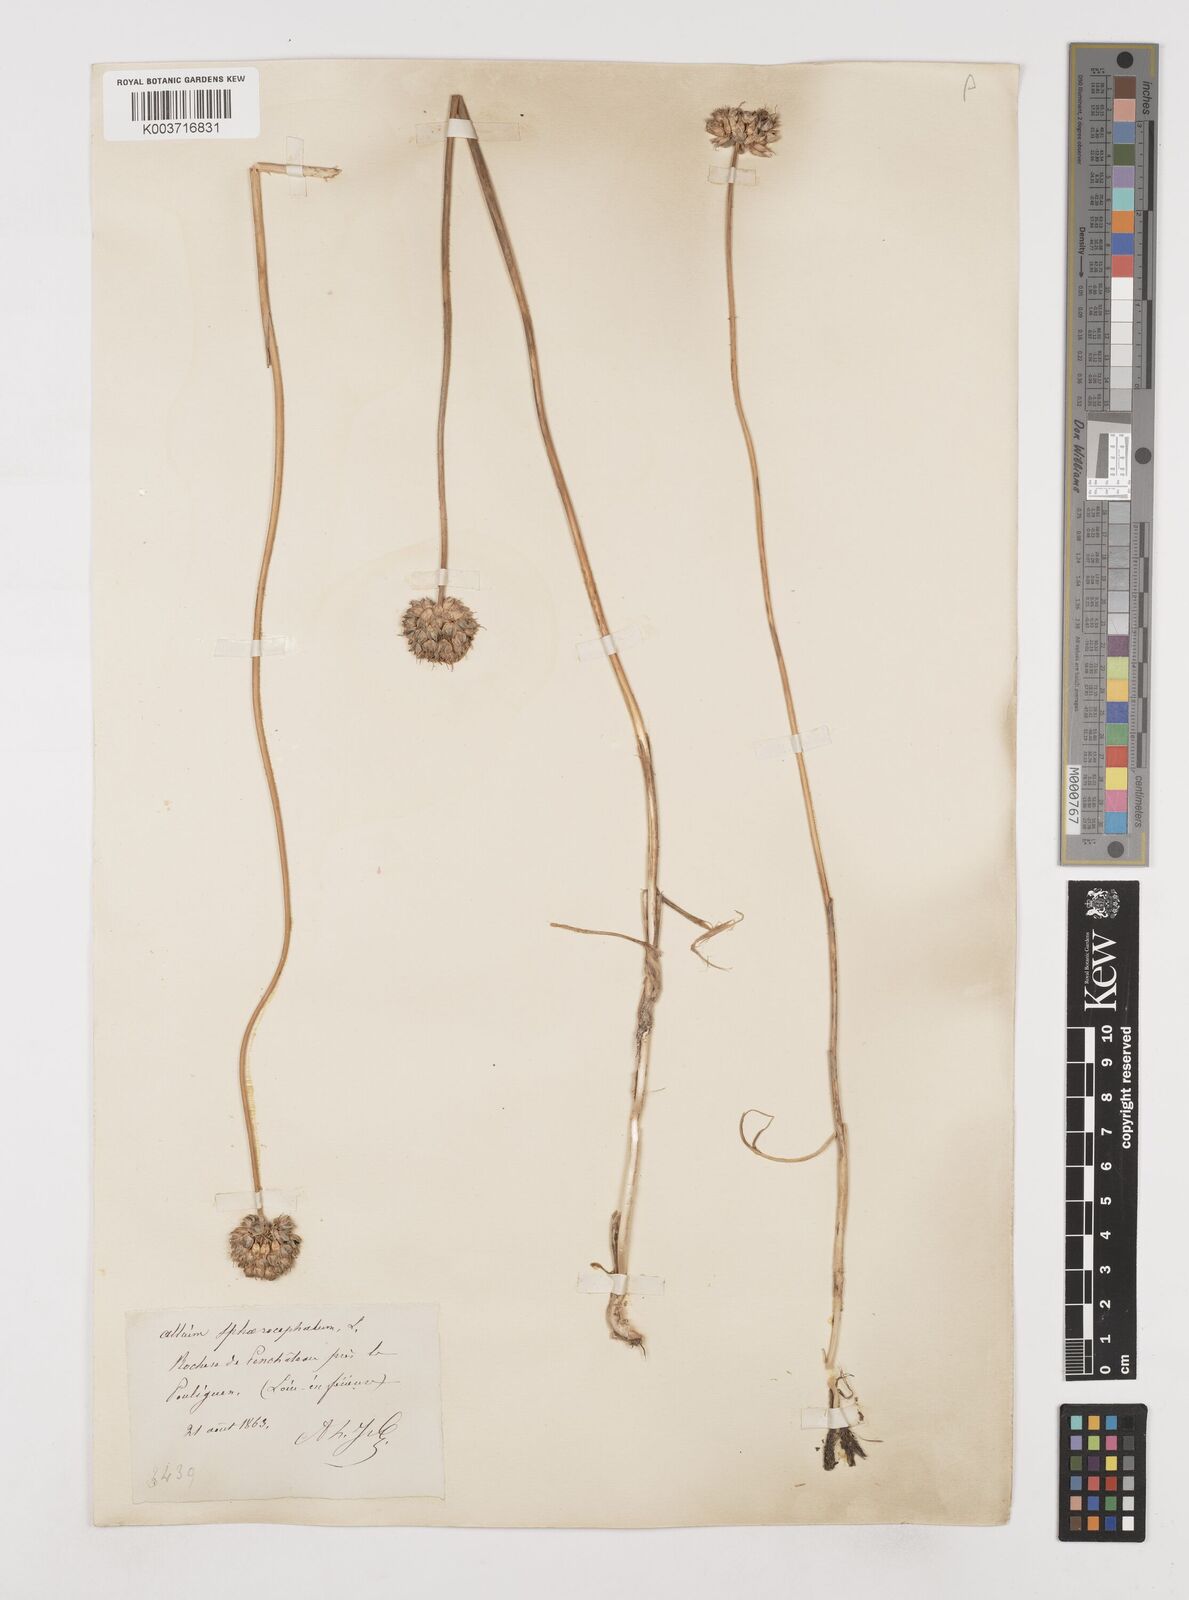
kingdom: Plantae
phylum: Tracheophyta
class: Liliopsida
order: Asparagales
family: Amaryllidaceae
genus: Allium
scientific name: Allium sphaerocephalon
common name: Round-headed leek
